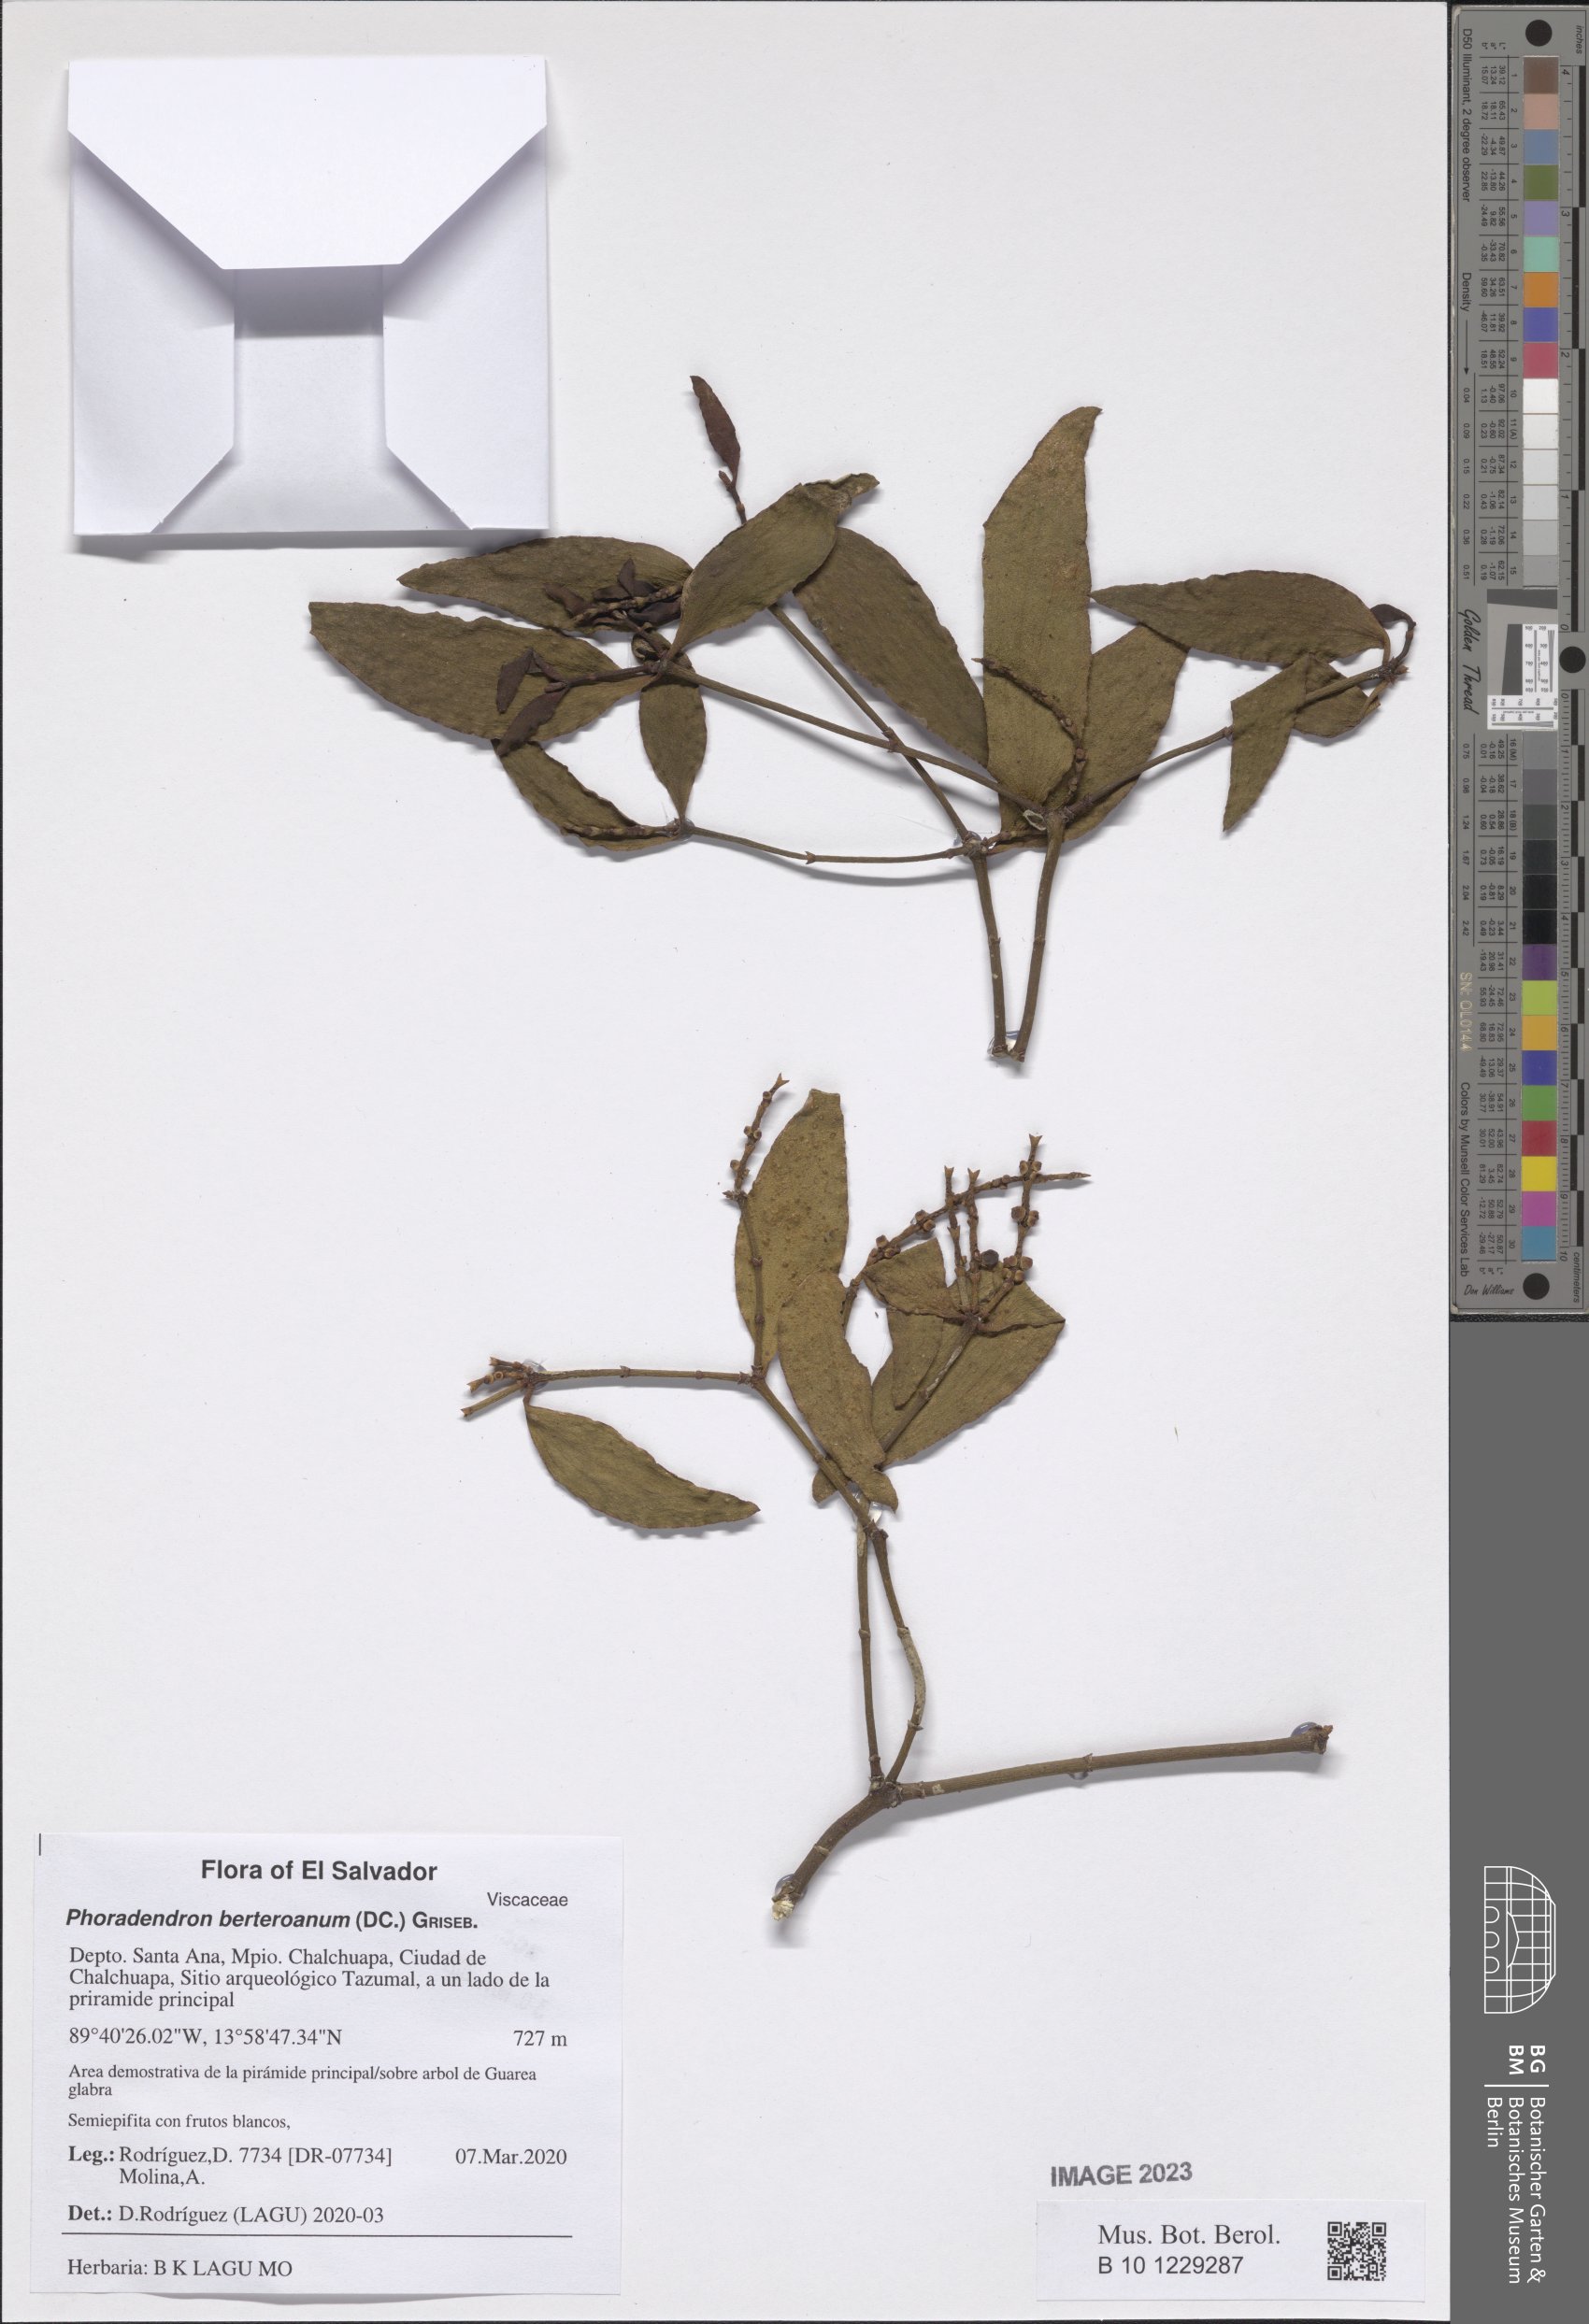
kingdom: Plantae
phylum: Tracheophyta
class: Magnoliopsida
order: Santalales
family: Viscaceae
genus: Phoradendron
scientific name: Phoradendron berteroanum
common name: Bertero's mistletoe
